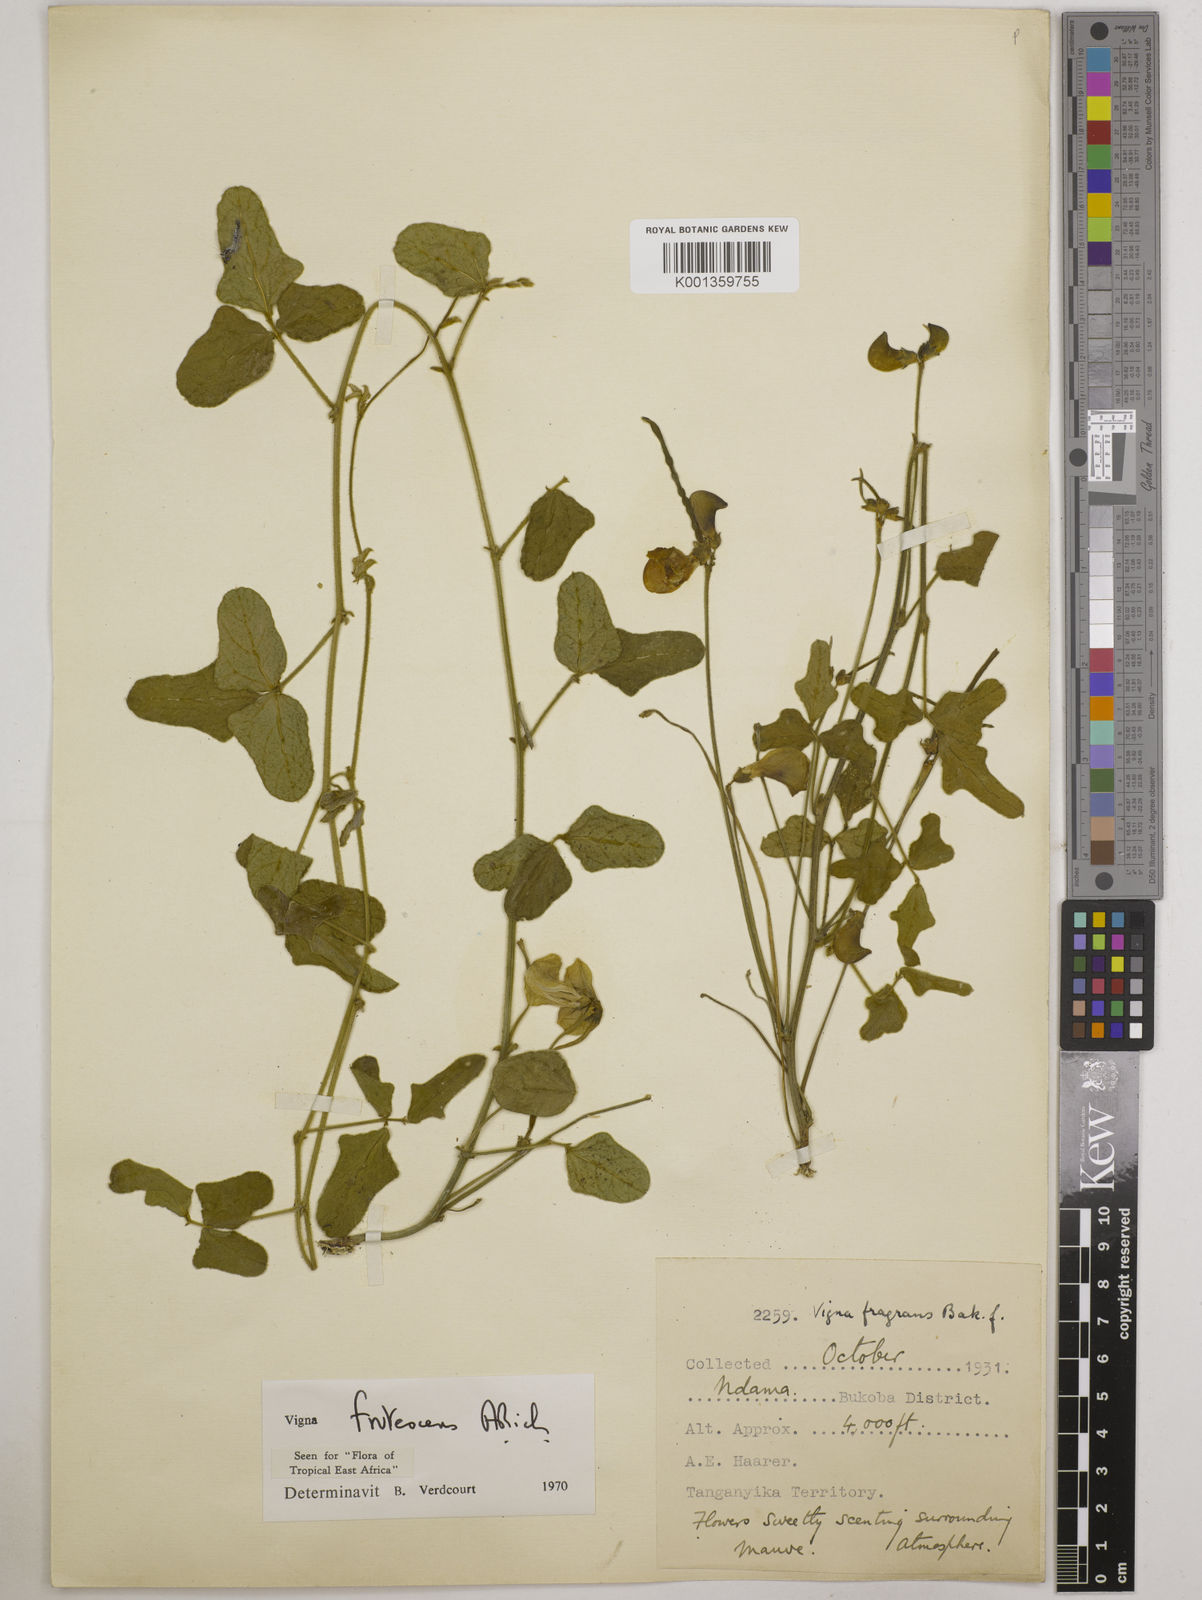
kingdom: Plantae
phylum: Tracheophyta
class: Magnoliopsida
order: Fabales
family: Fabaceae
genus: Vigna
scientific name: Vigna frutescens
